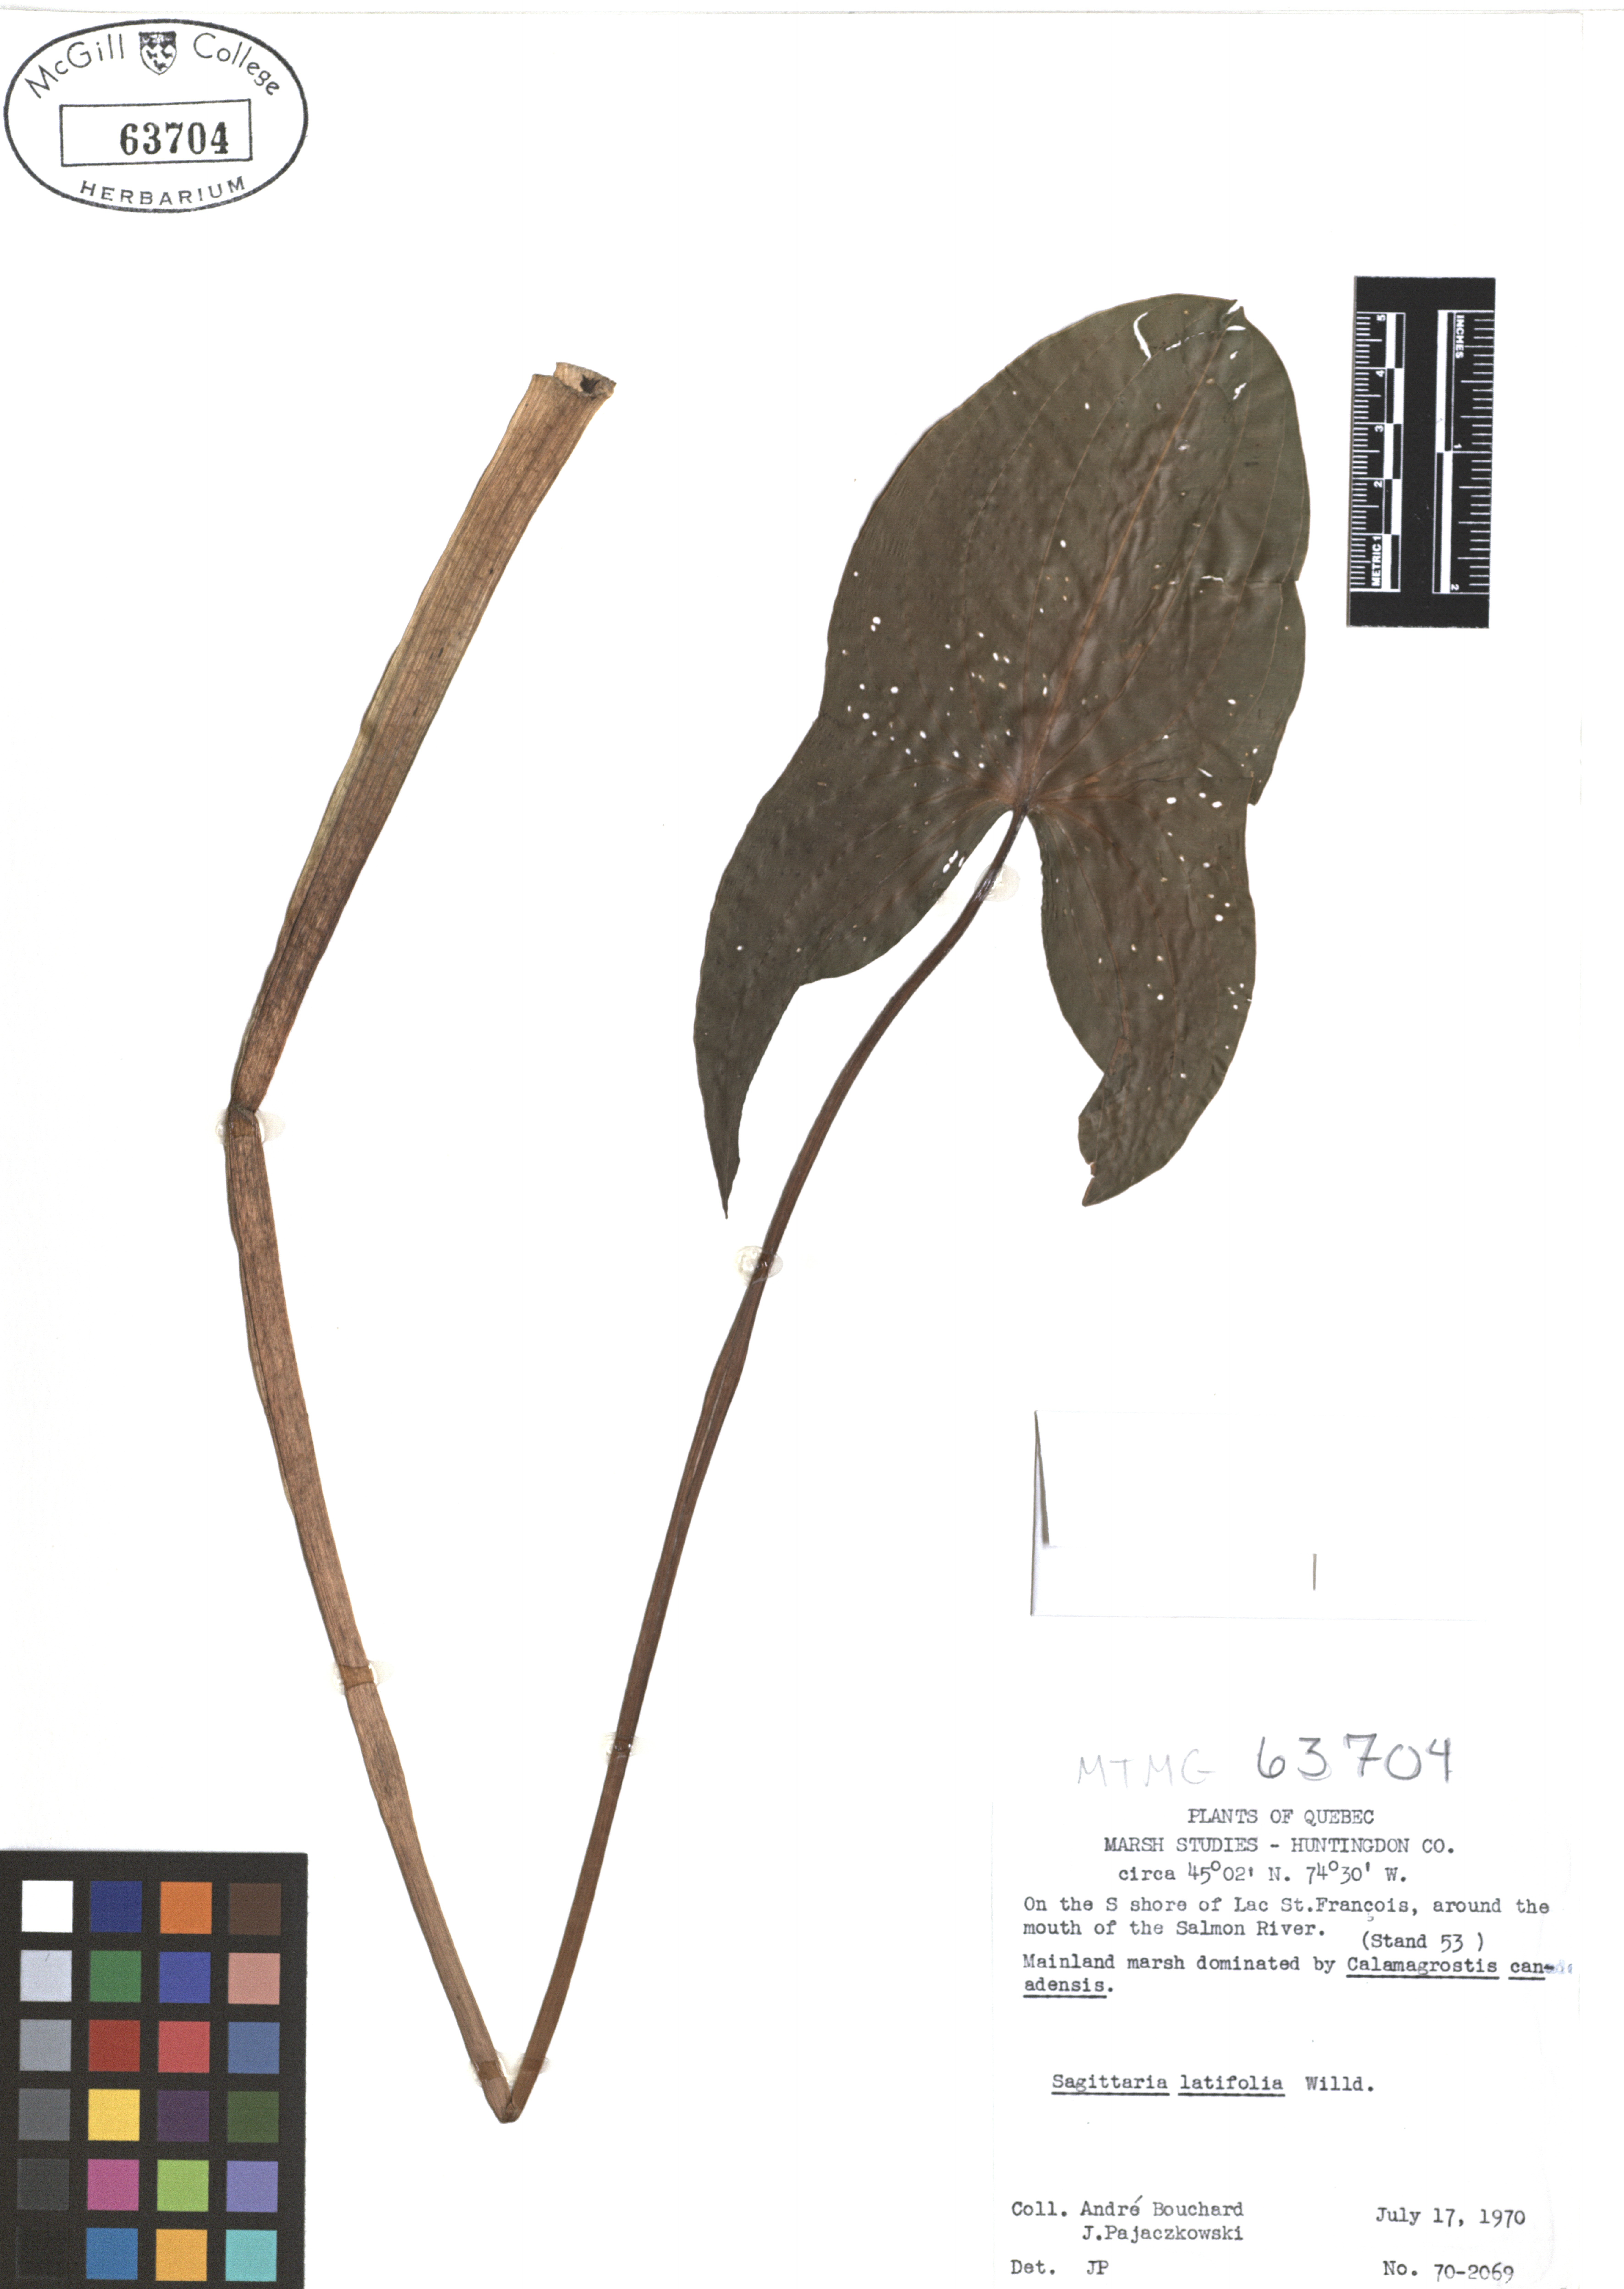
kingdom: Plantae
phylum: Tracheophyta
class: Liliopsida
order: Alismatales
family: Alismataceae
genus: Sagittaria
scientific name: Sagittaria latifolia
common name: Duck-potato
